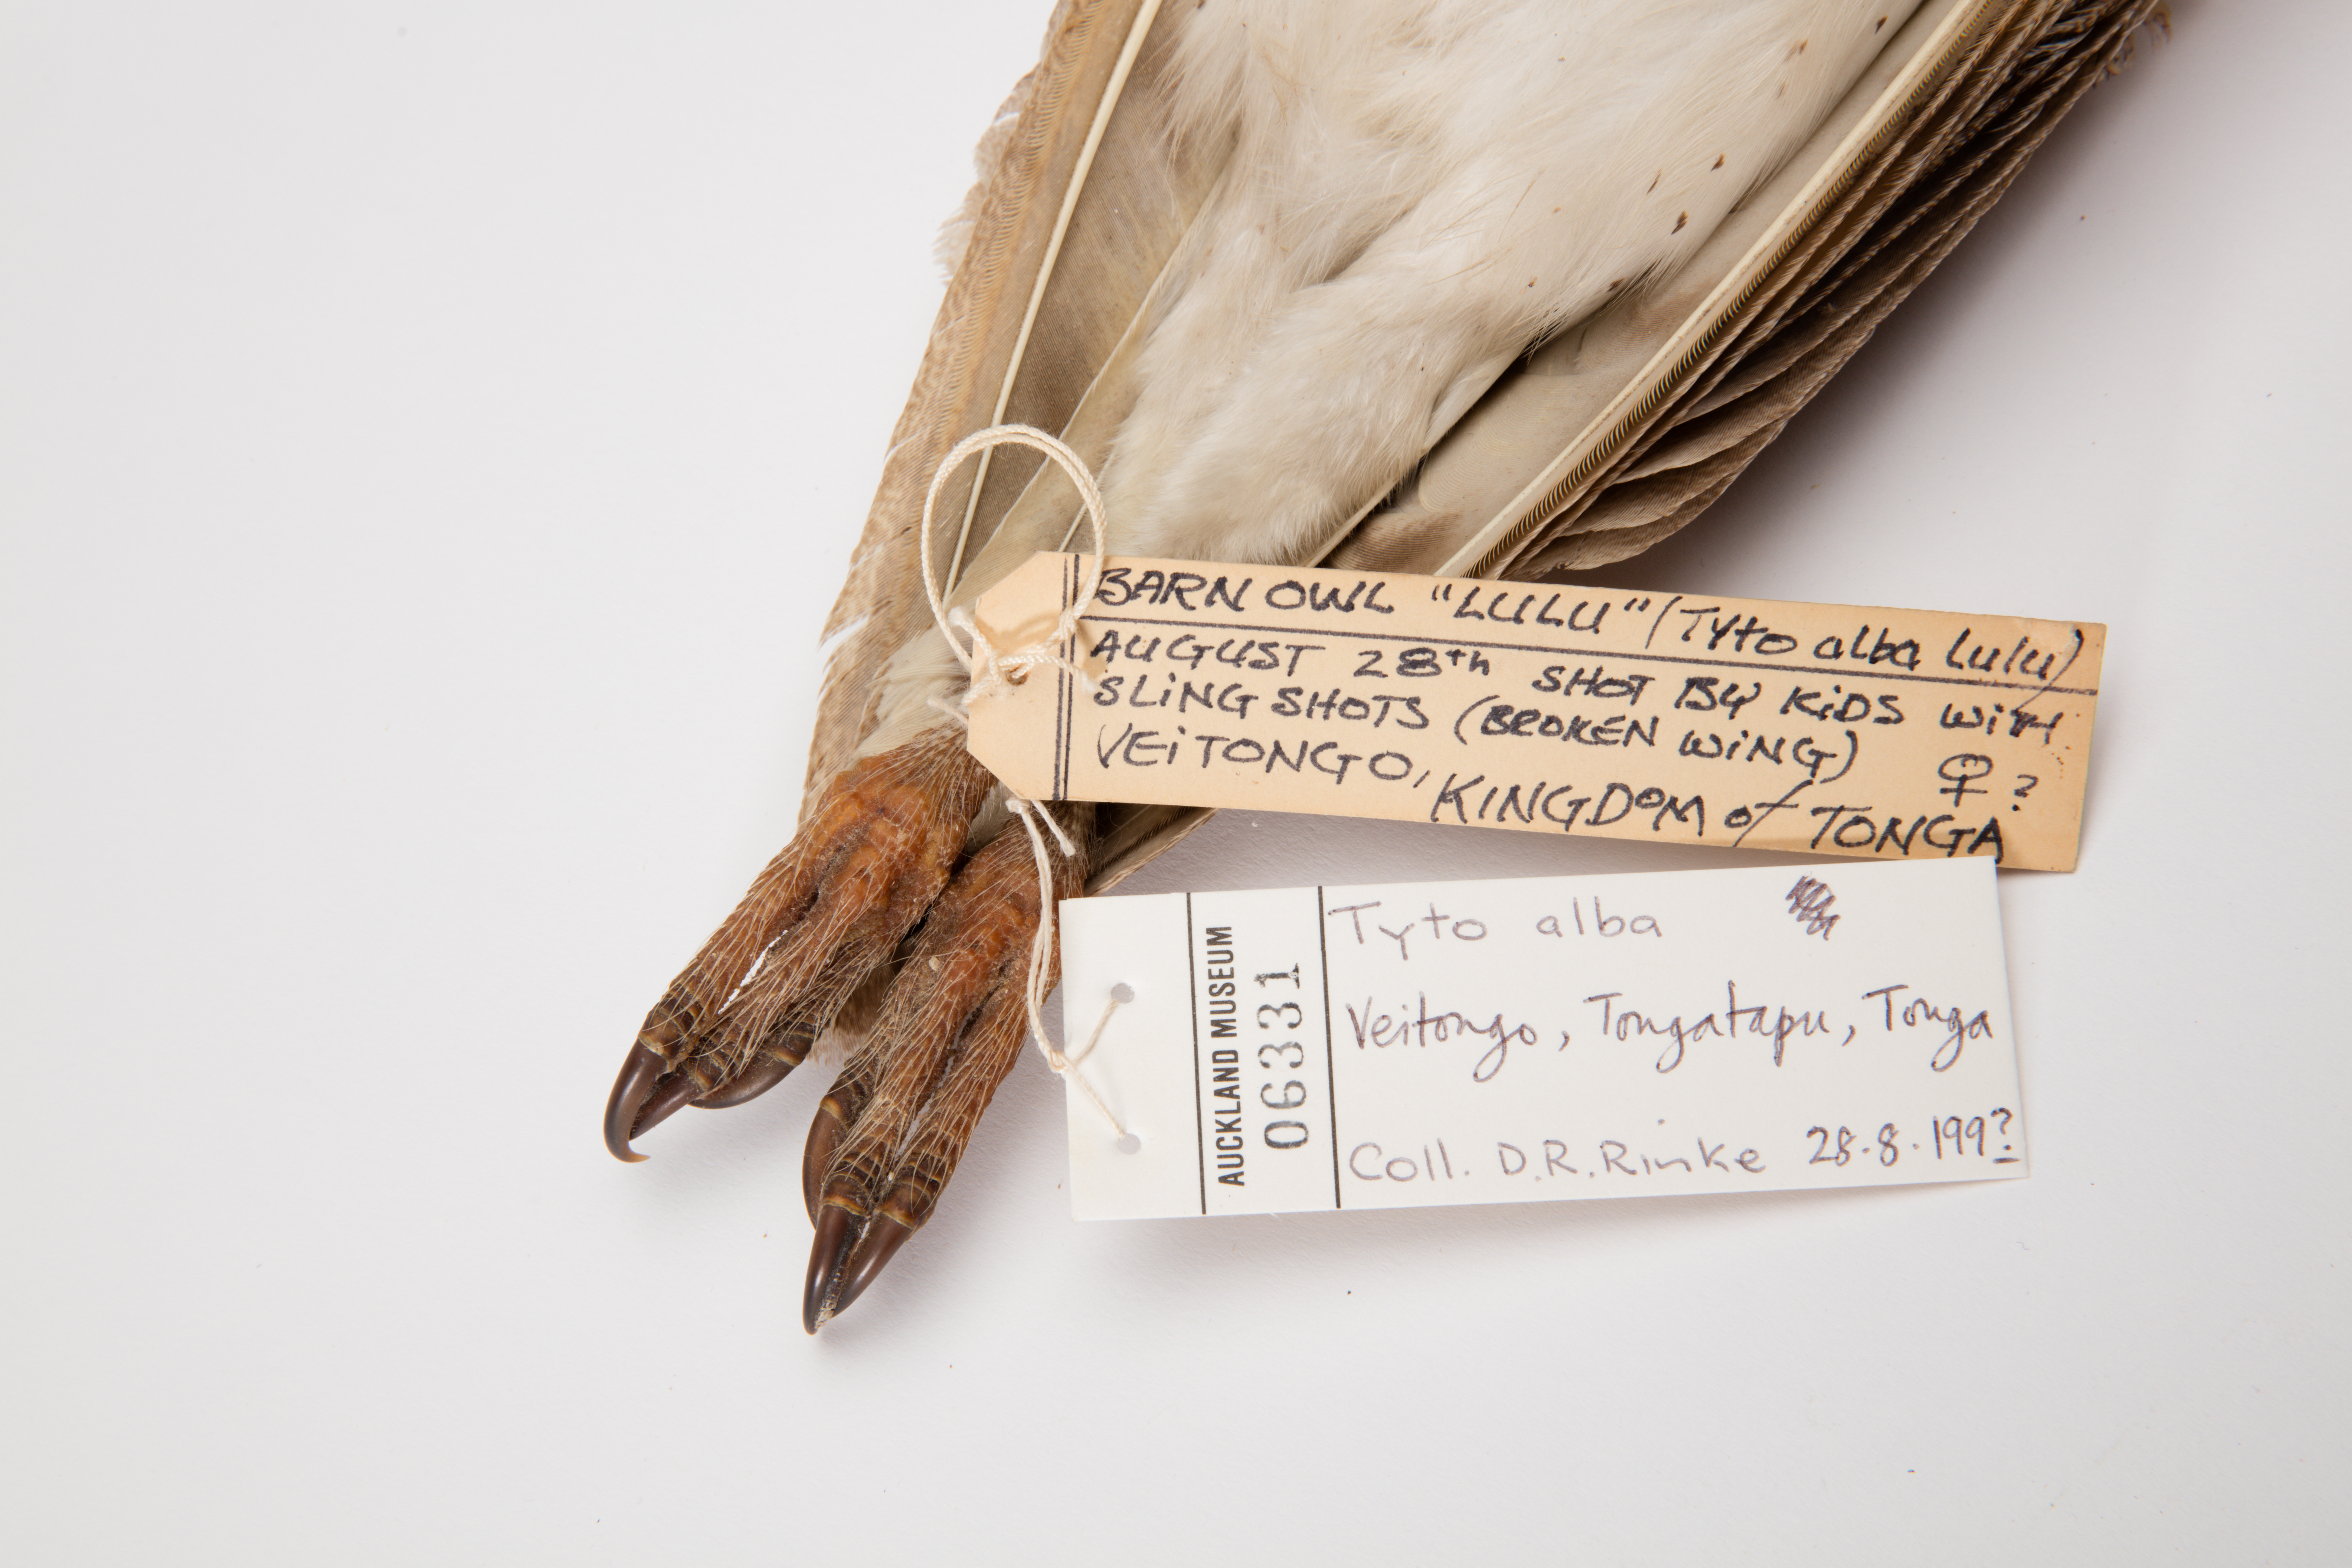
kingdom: Animalia
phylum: Chordata
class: Aves
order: Strigiformes
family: Tytonidae
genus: Tyto
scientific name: Tyto alba
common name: Barn owl
